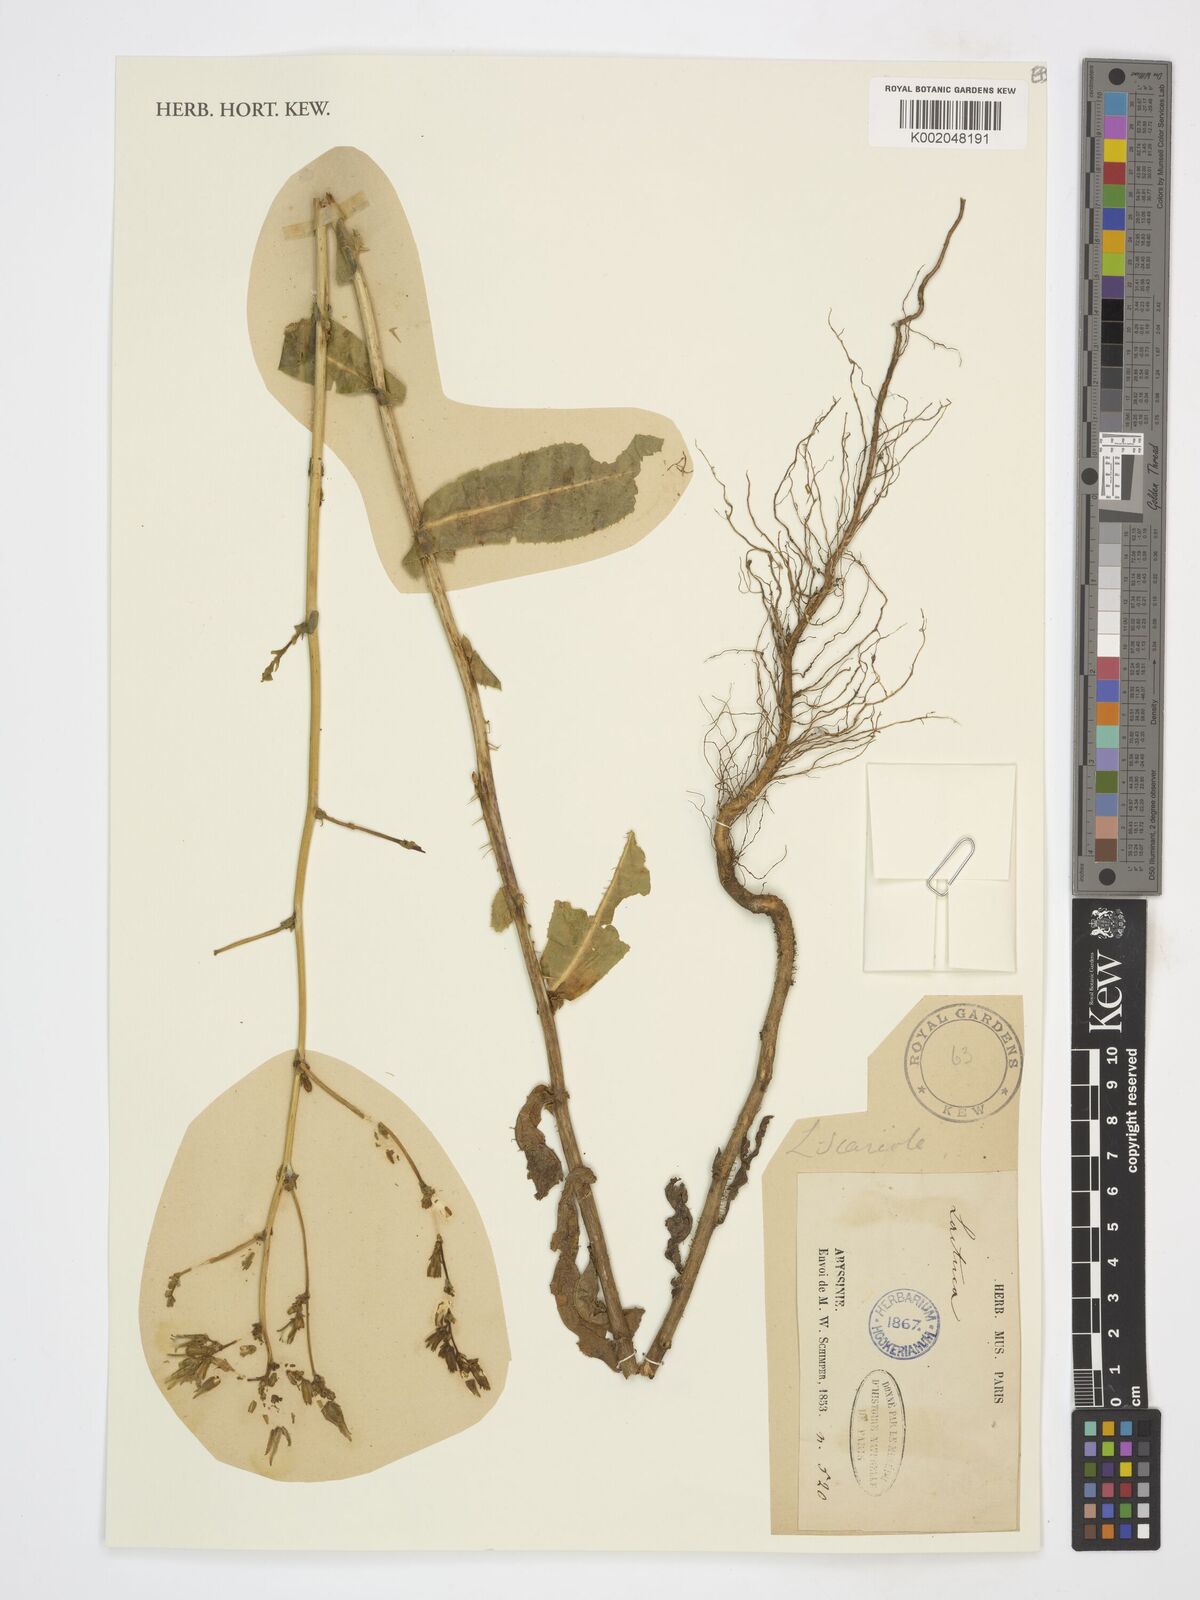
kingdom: Plantae
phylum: Tracheophyta
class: Magnoliopsida
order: Asterales
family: Asteraceae
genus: Lactuca
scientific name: Lactuca
